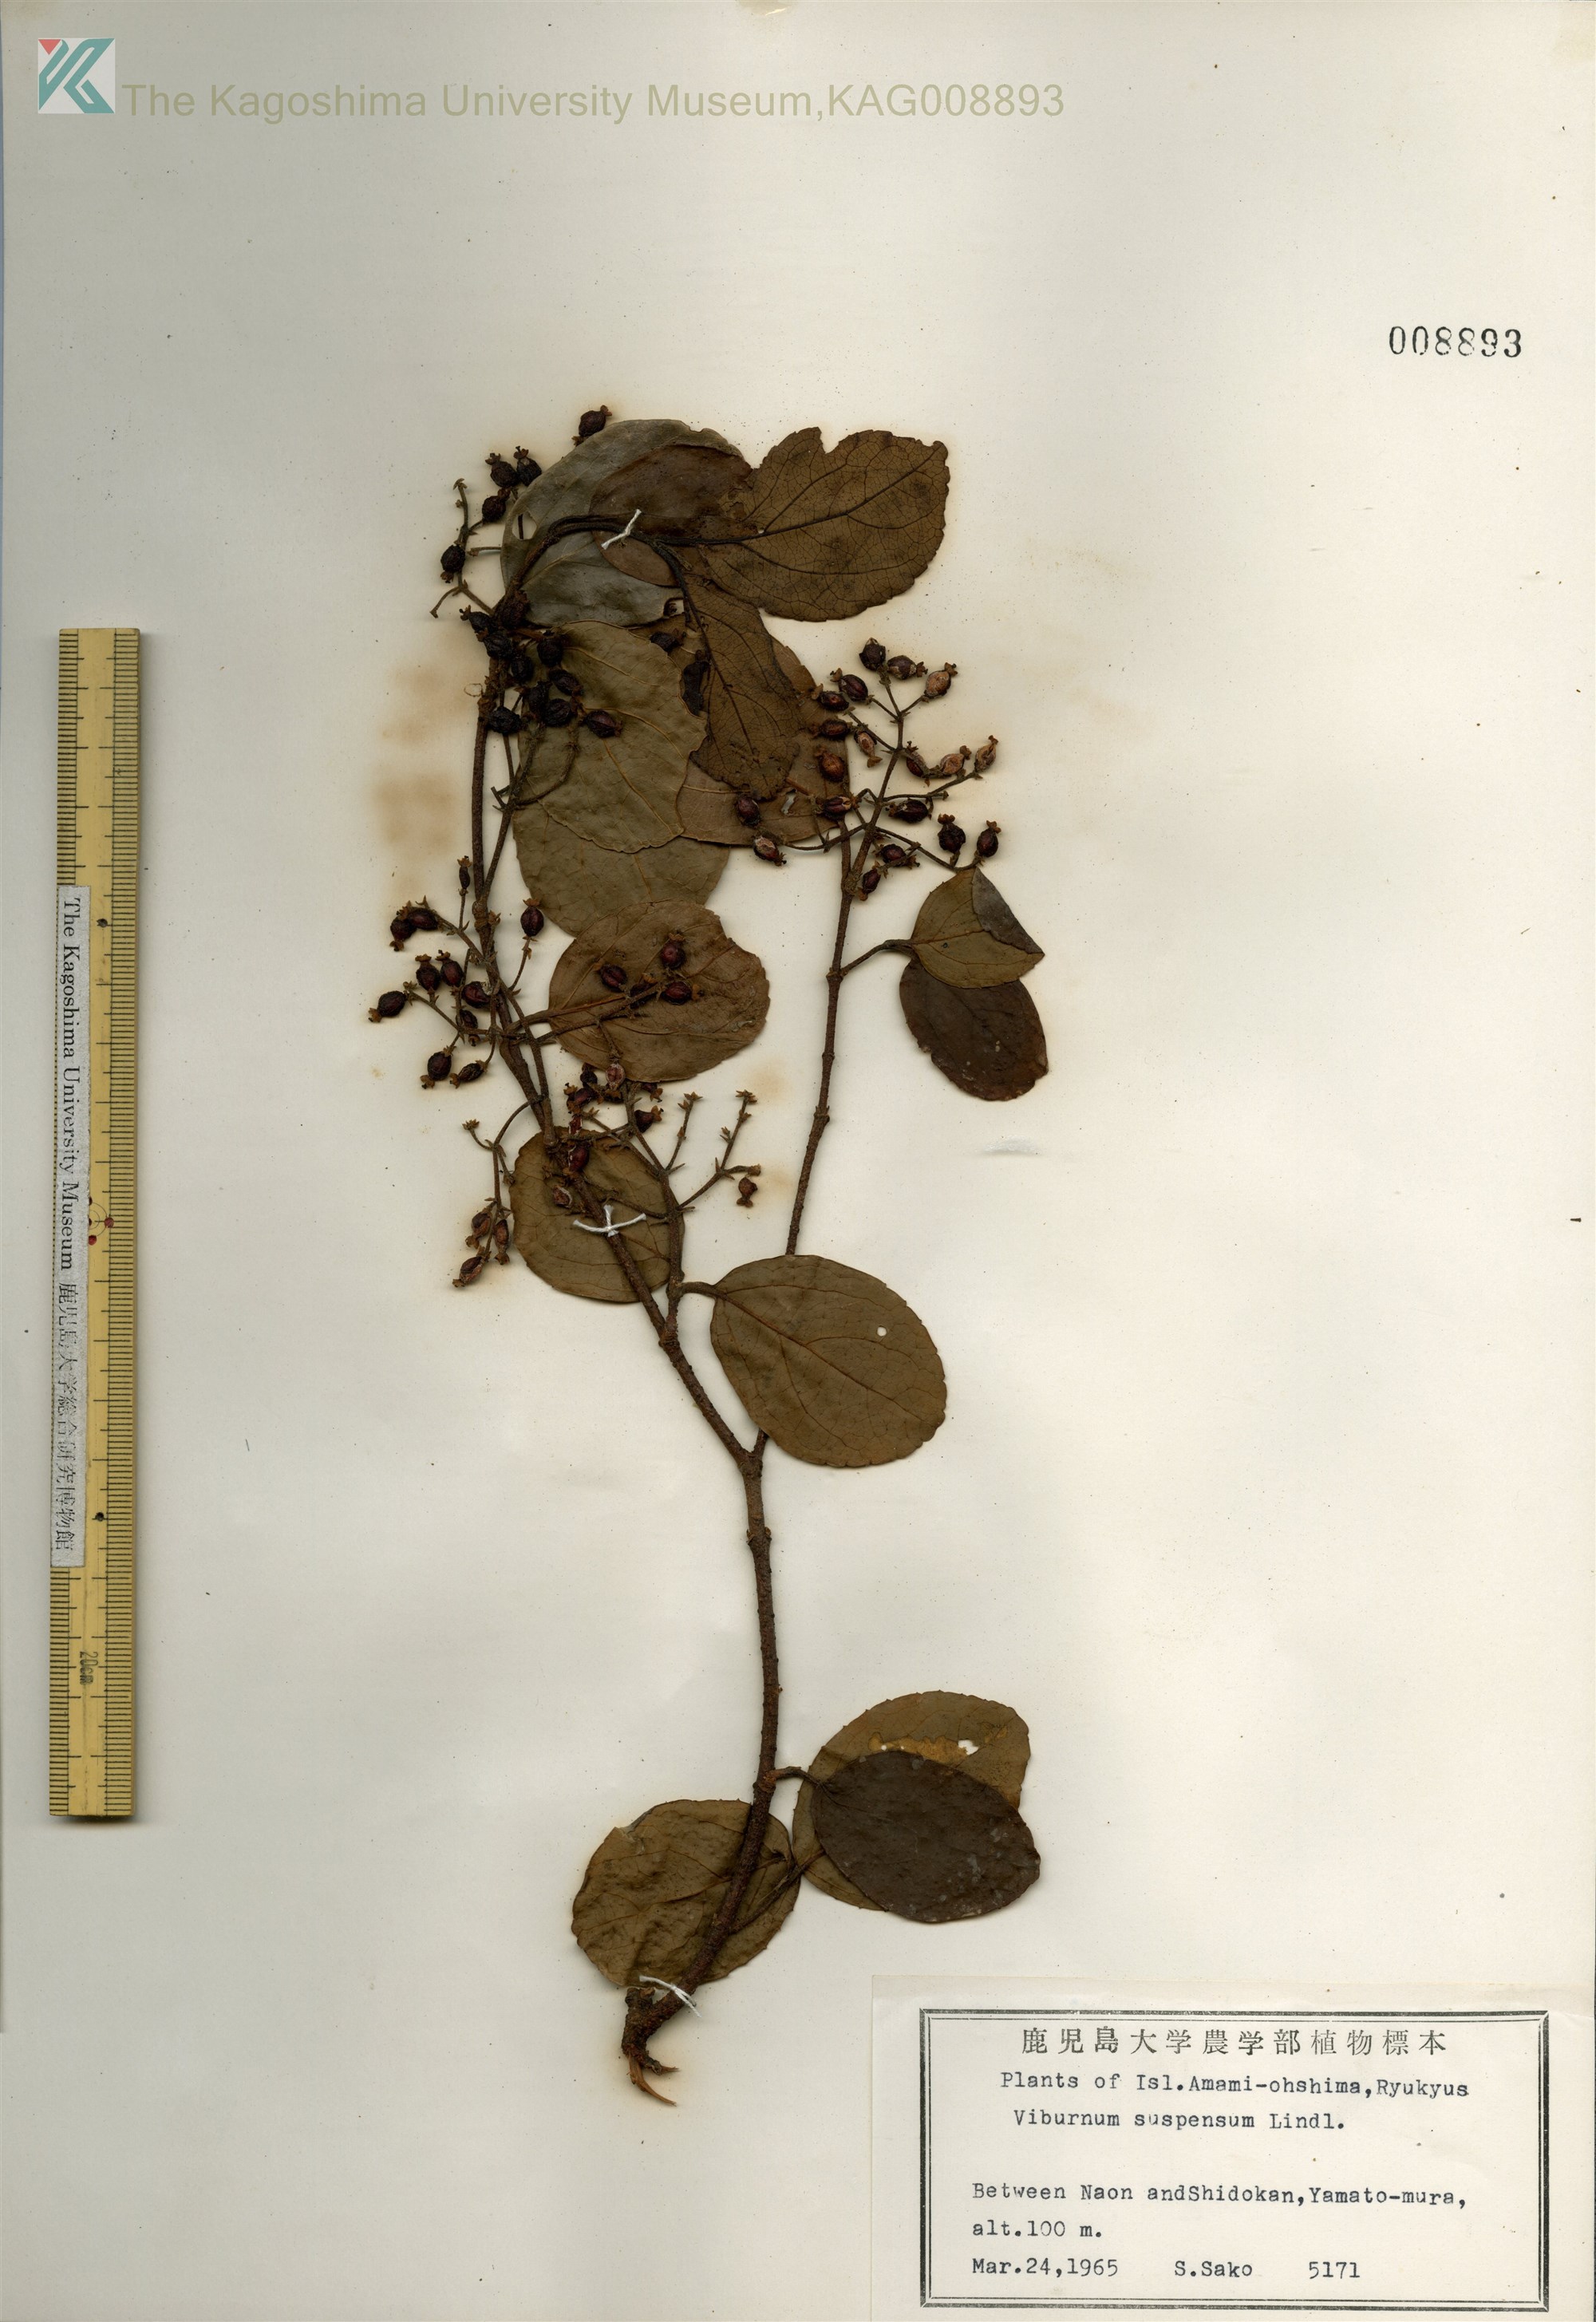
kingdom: Plantae
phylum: Tracheophyta
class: Magnoliopsida
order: Dipsacales
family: Viburnaceae
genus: Viburnum
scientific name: Viburnum suspensum
